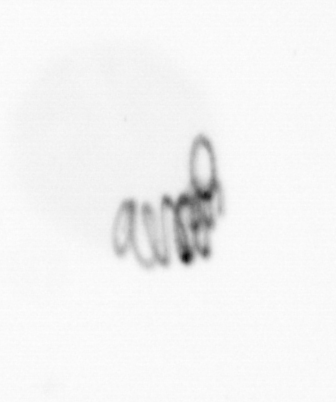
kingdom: Chromista
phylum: Ochrophyta
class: Bacillariophyceae
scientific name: Bacillariophyceae
